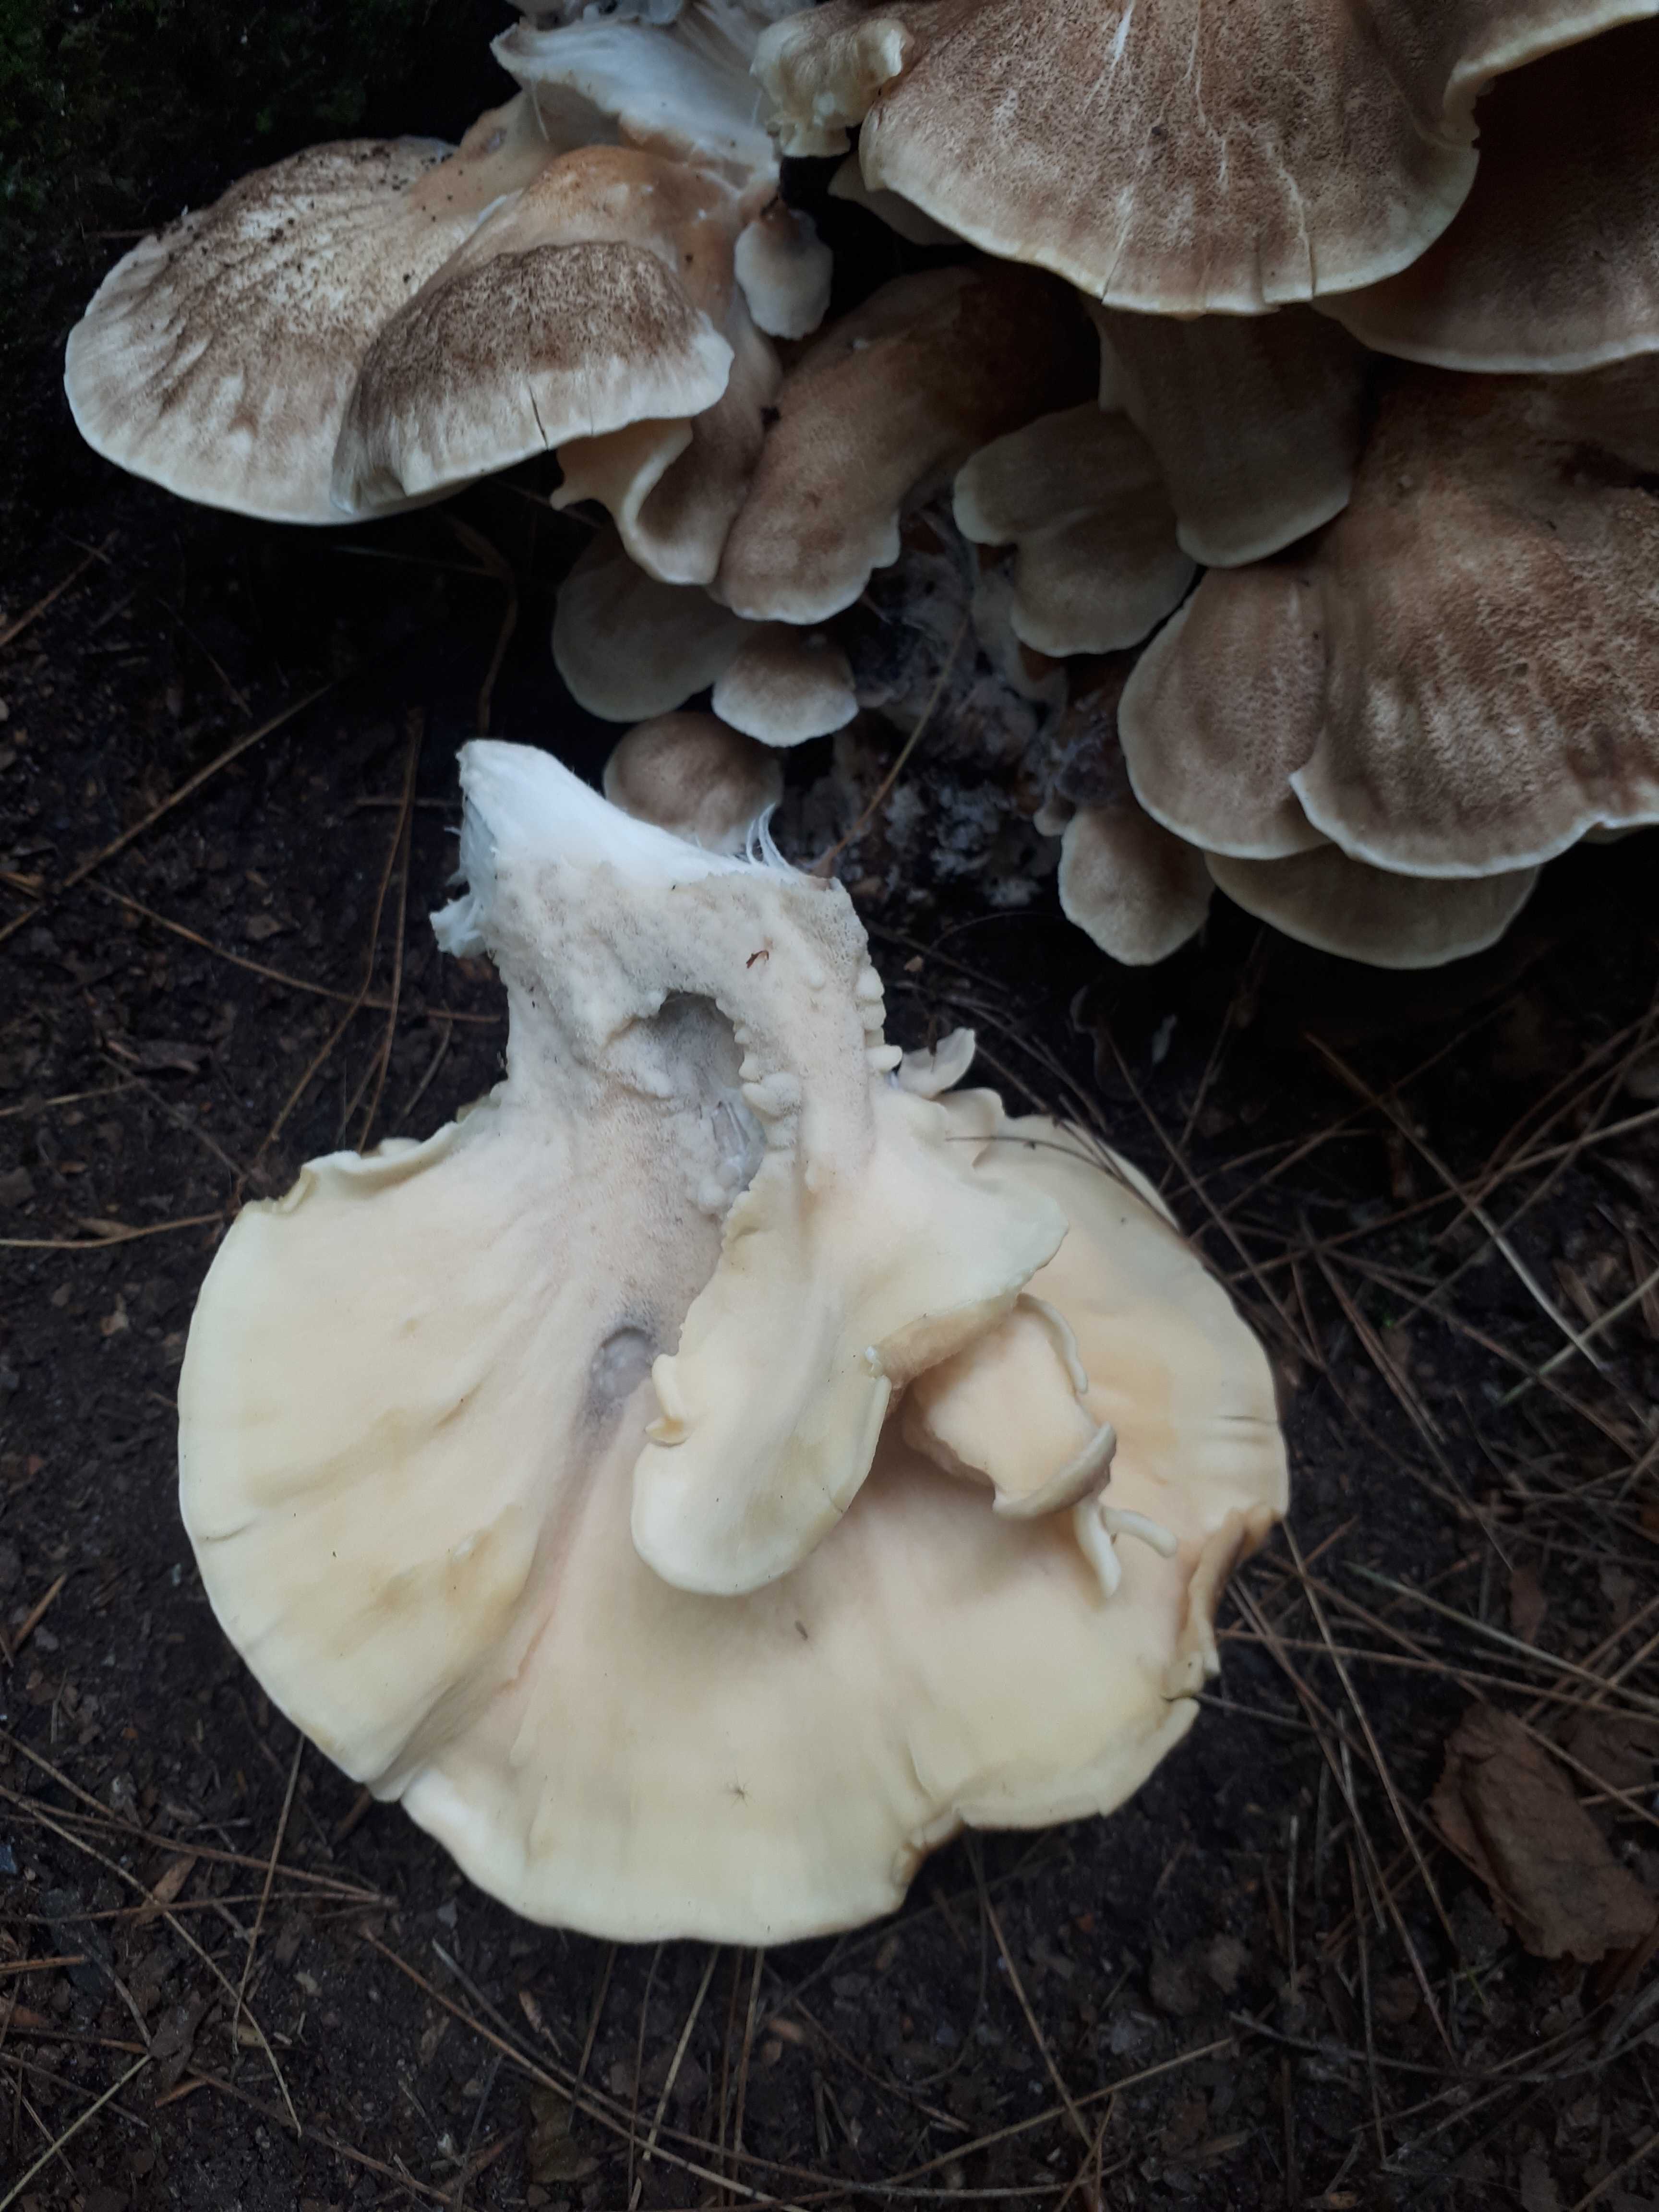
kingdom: Fungi
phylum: Basidiomycota
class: Agaricomycetes
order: Polyporales
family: Meripilaceae
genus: Meripilus
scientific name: Meripilus giganteus
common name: kæmpeporesvamp
